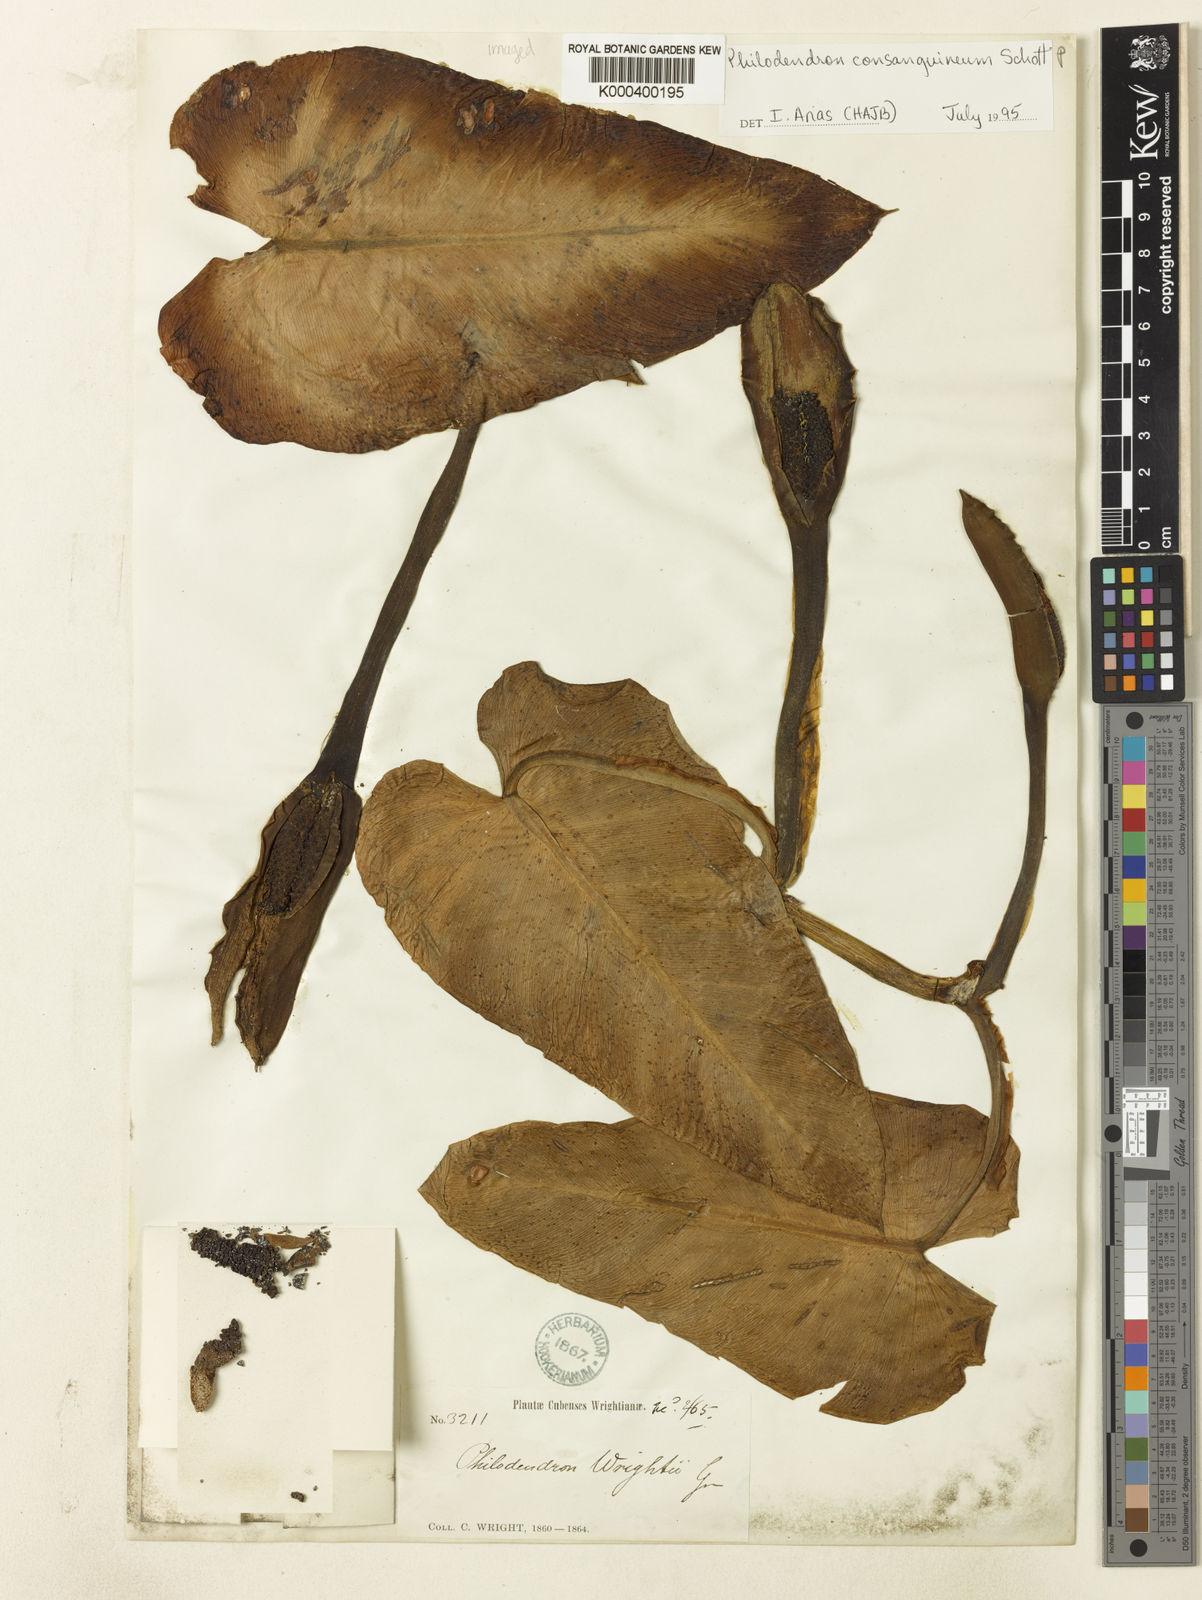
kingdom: Plantae
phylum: Tracheophyta
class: Liliopsida
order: Alismatales
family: Araceae
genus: Philodendron
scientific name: Philodendron consanguineum
